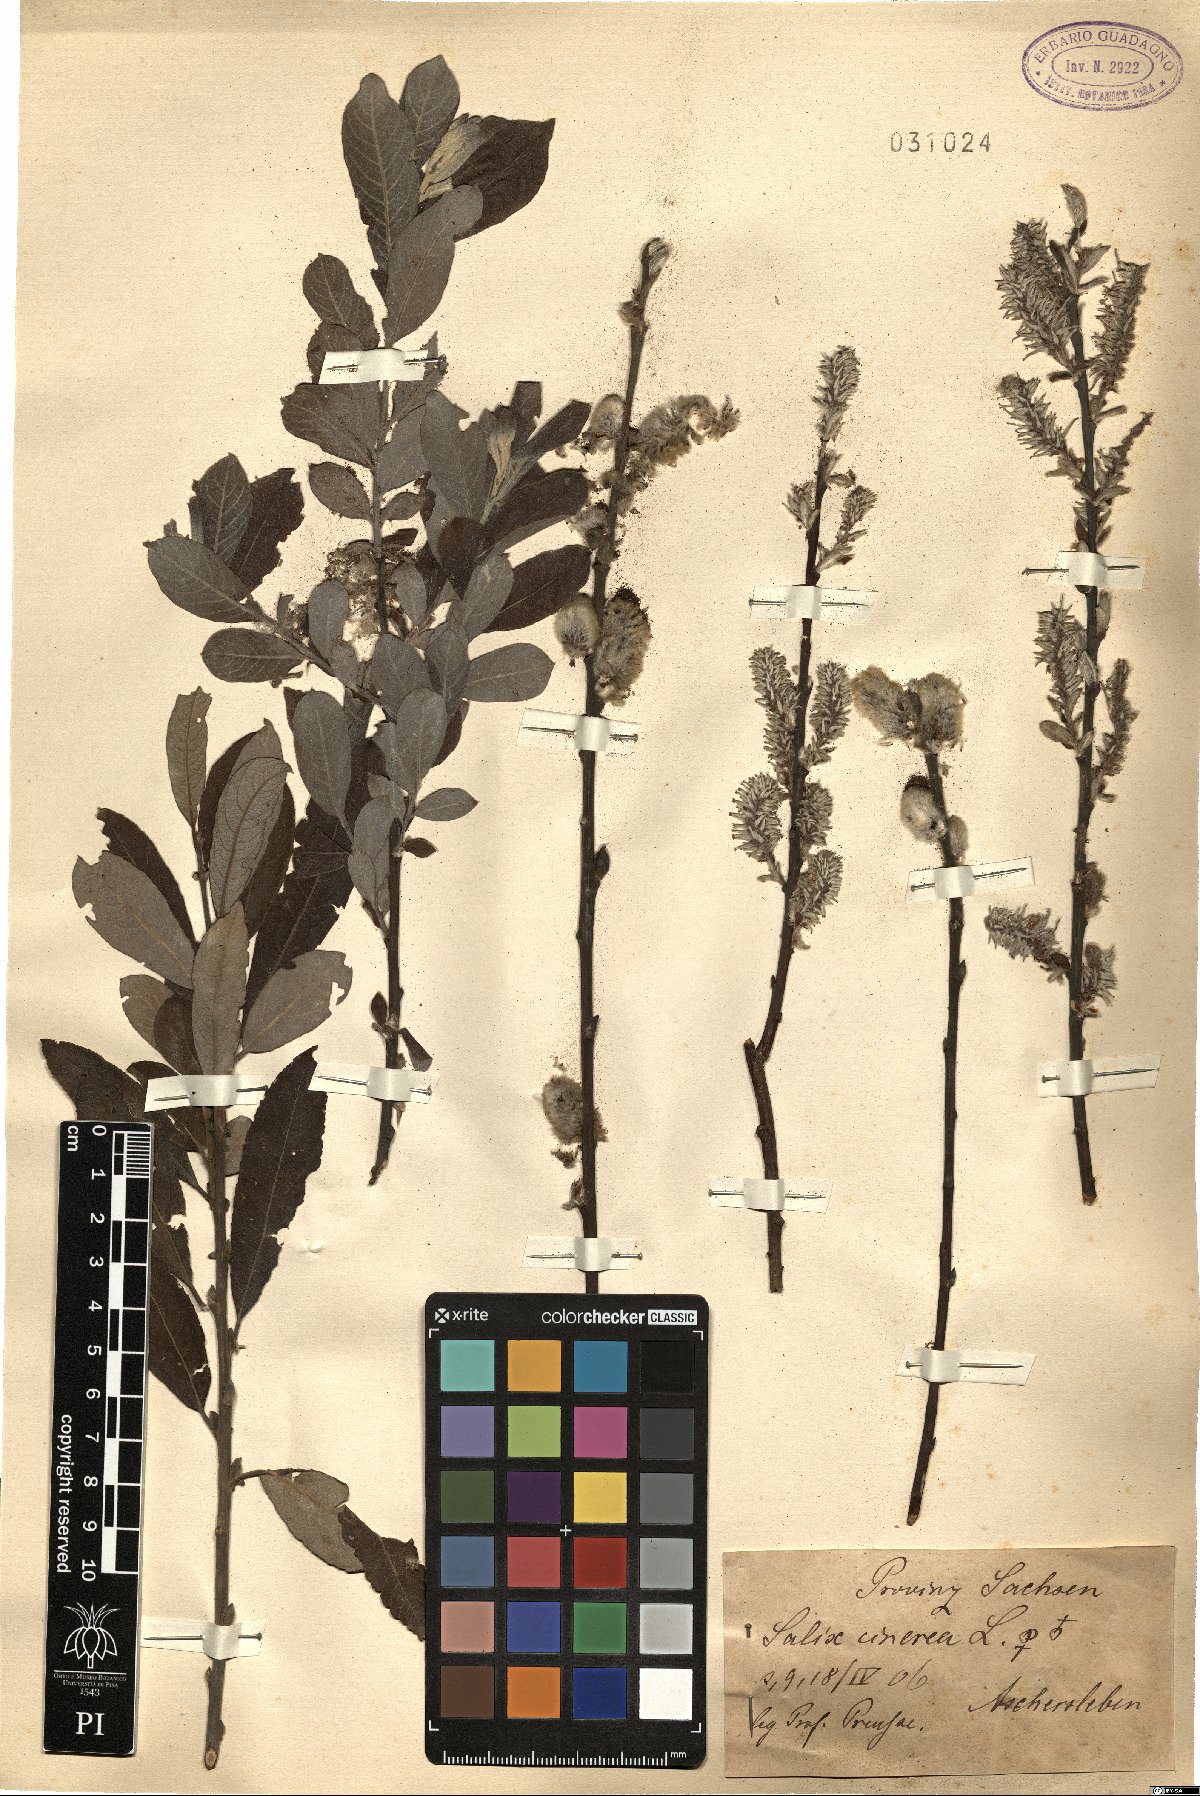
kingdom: Plantae
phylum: Tracheophyta
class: Magnoliopsida
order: Malpighiales
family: Salicaceae
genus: Salix
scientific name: Salix cinerea
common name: Common sallow
